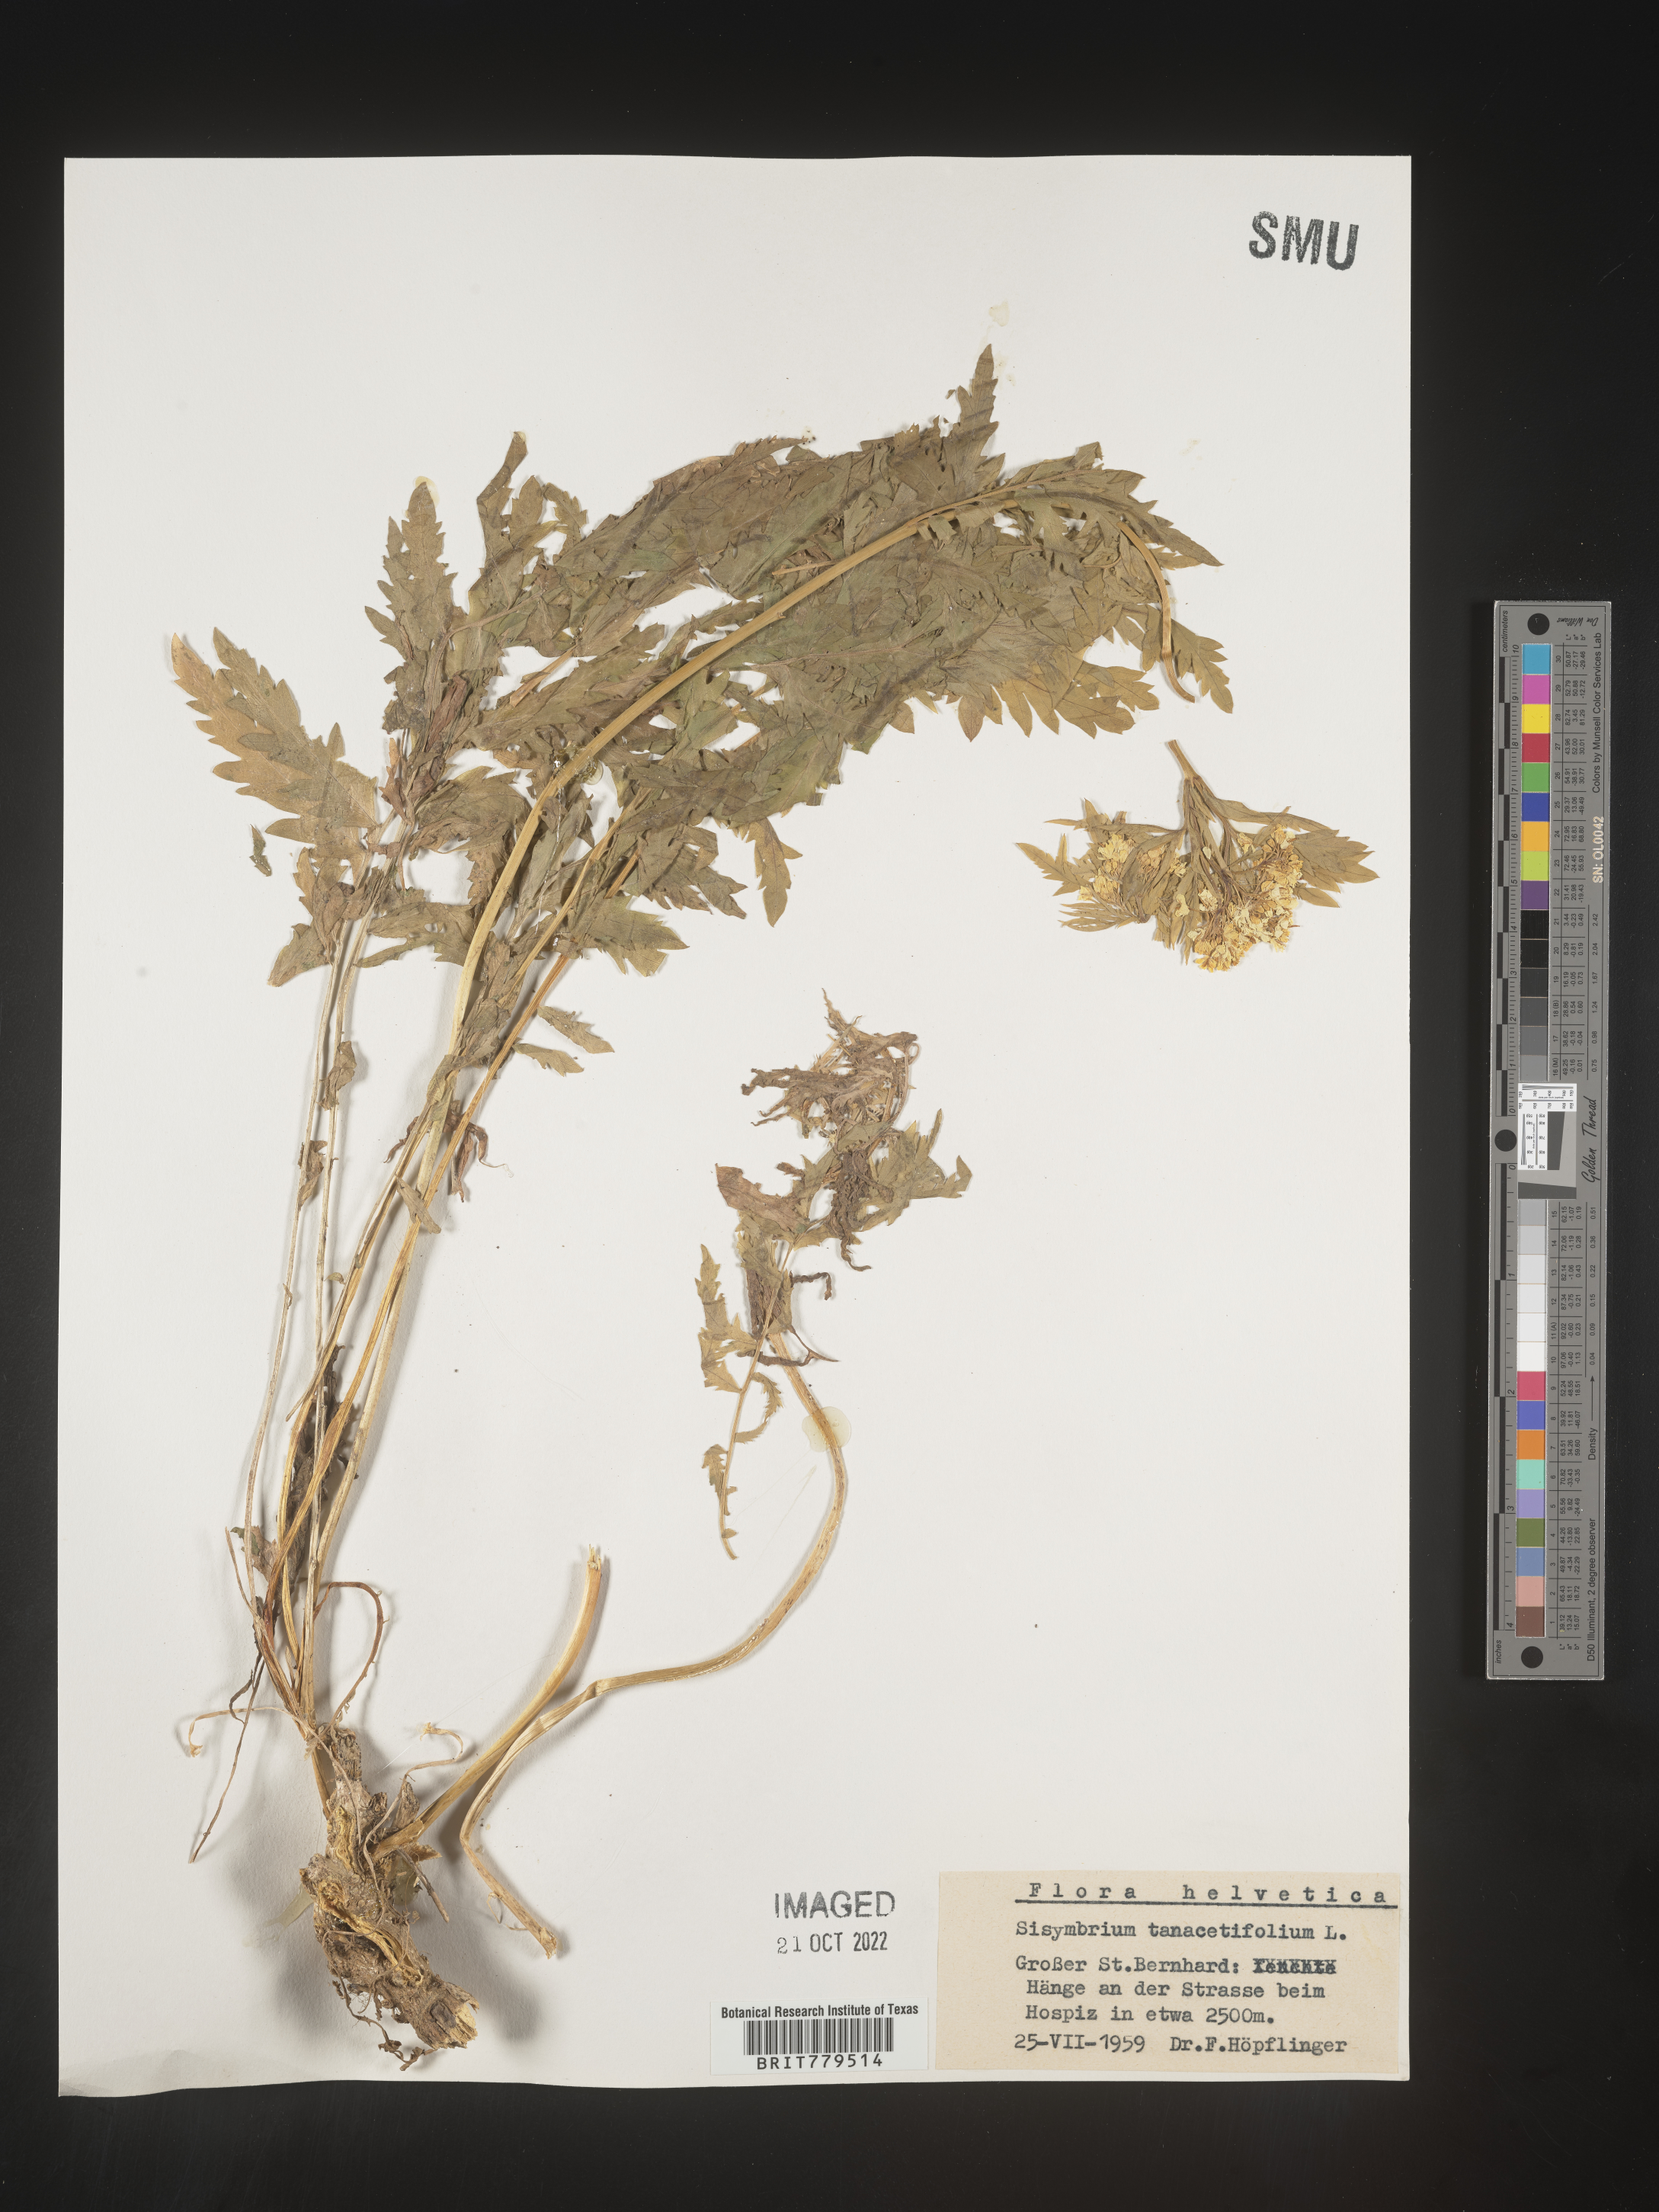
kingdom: Plantae
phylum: Tracheophyta
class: Magnoliopsida
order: Brassicales
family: Brassicaceae
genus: Sisymbrium
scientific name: Sisymbrium
